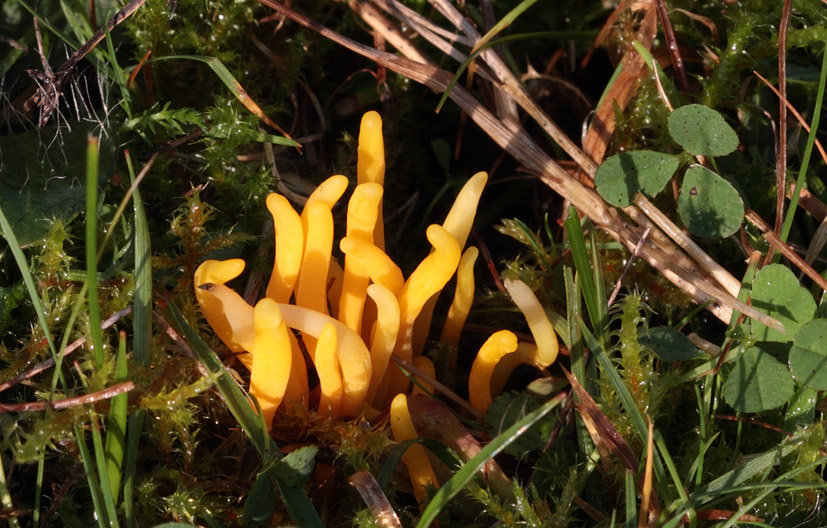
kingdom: Fungi
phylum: Basidiomycota
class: Agaricomycetes
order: Agaricales
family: Clavariaceae
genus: Clavulinopsis
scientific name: Clavulinopsis helvola
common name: orangegul køllesvamp
